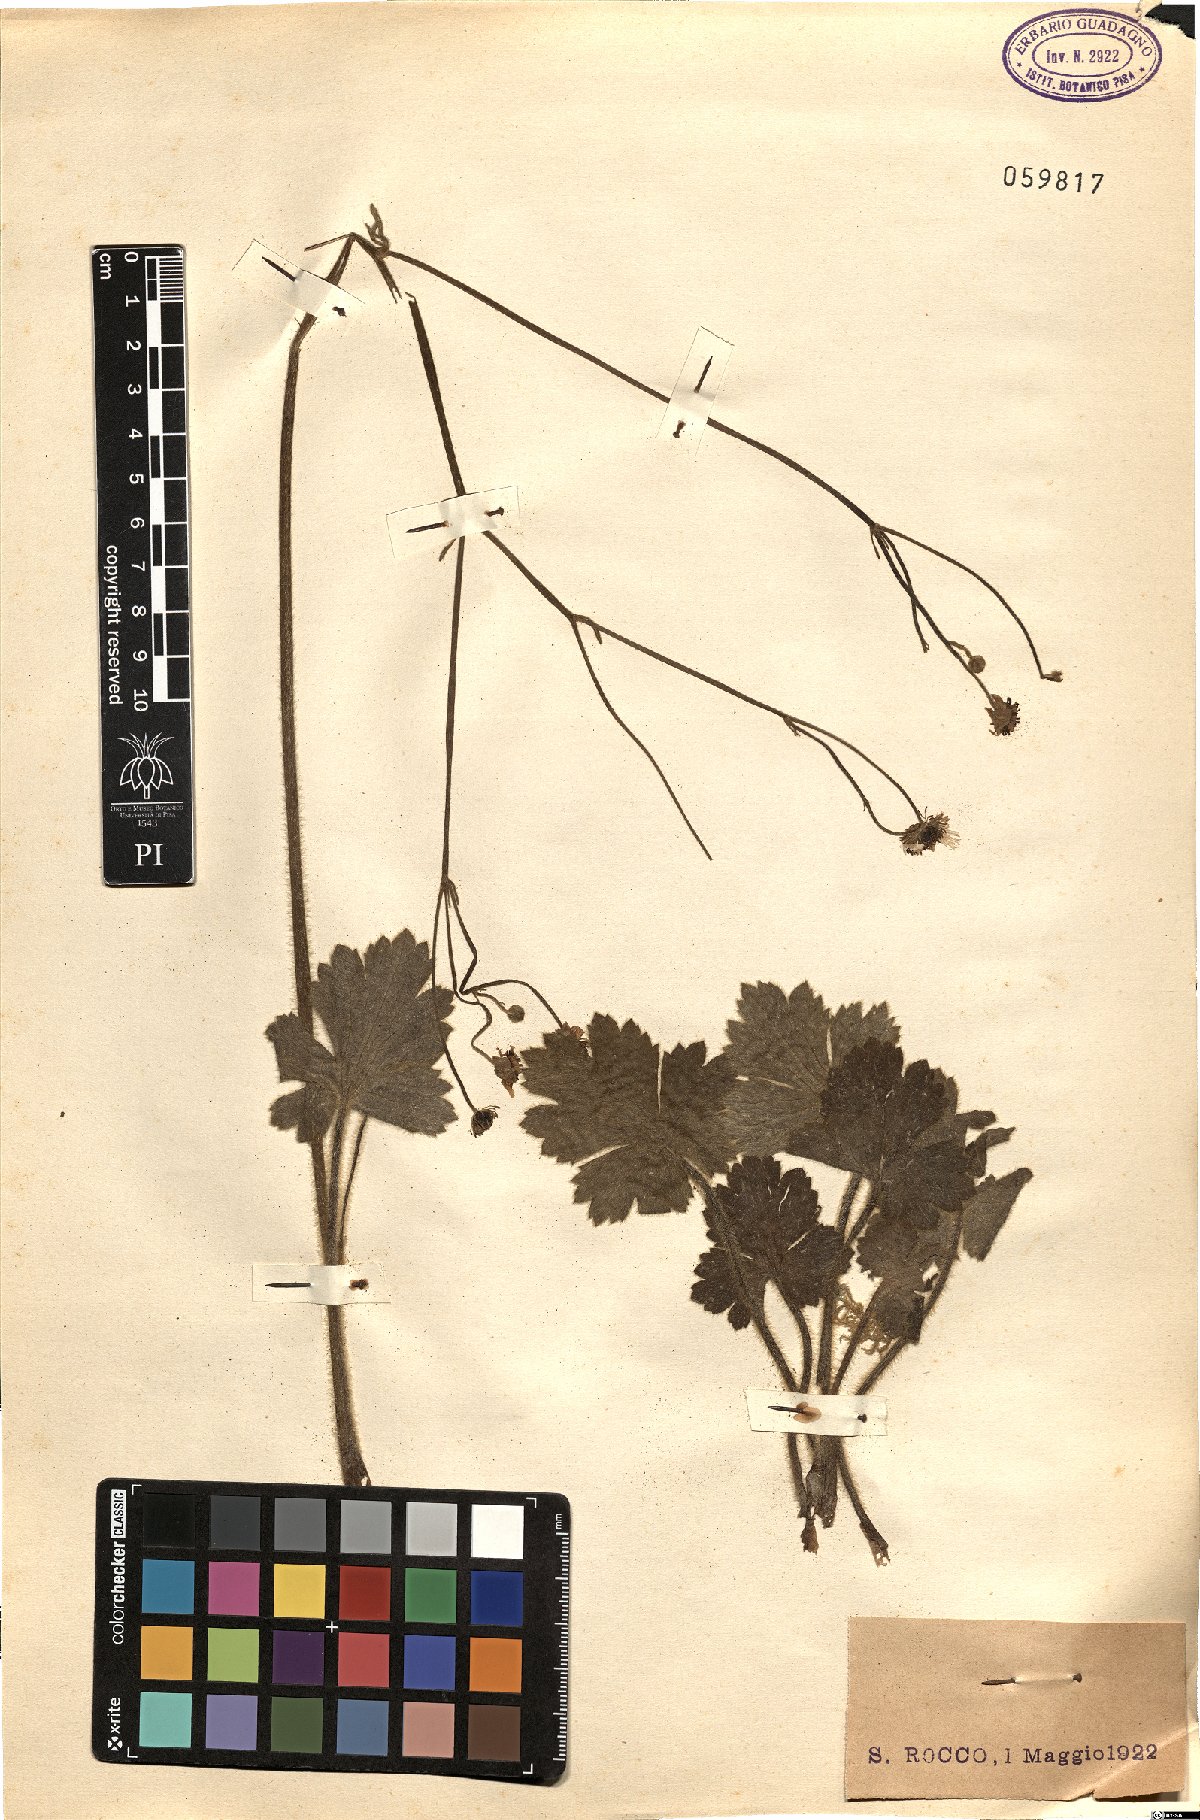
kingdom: Plantae
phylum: Tracheophyta
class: Magnoliopsida
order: Ranunculales
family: Ranunculaceae
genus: Ranunculus
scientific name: Ranunculus
